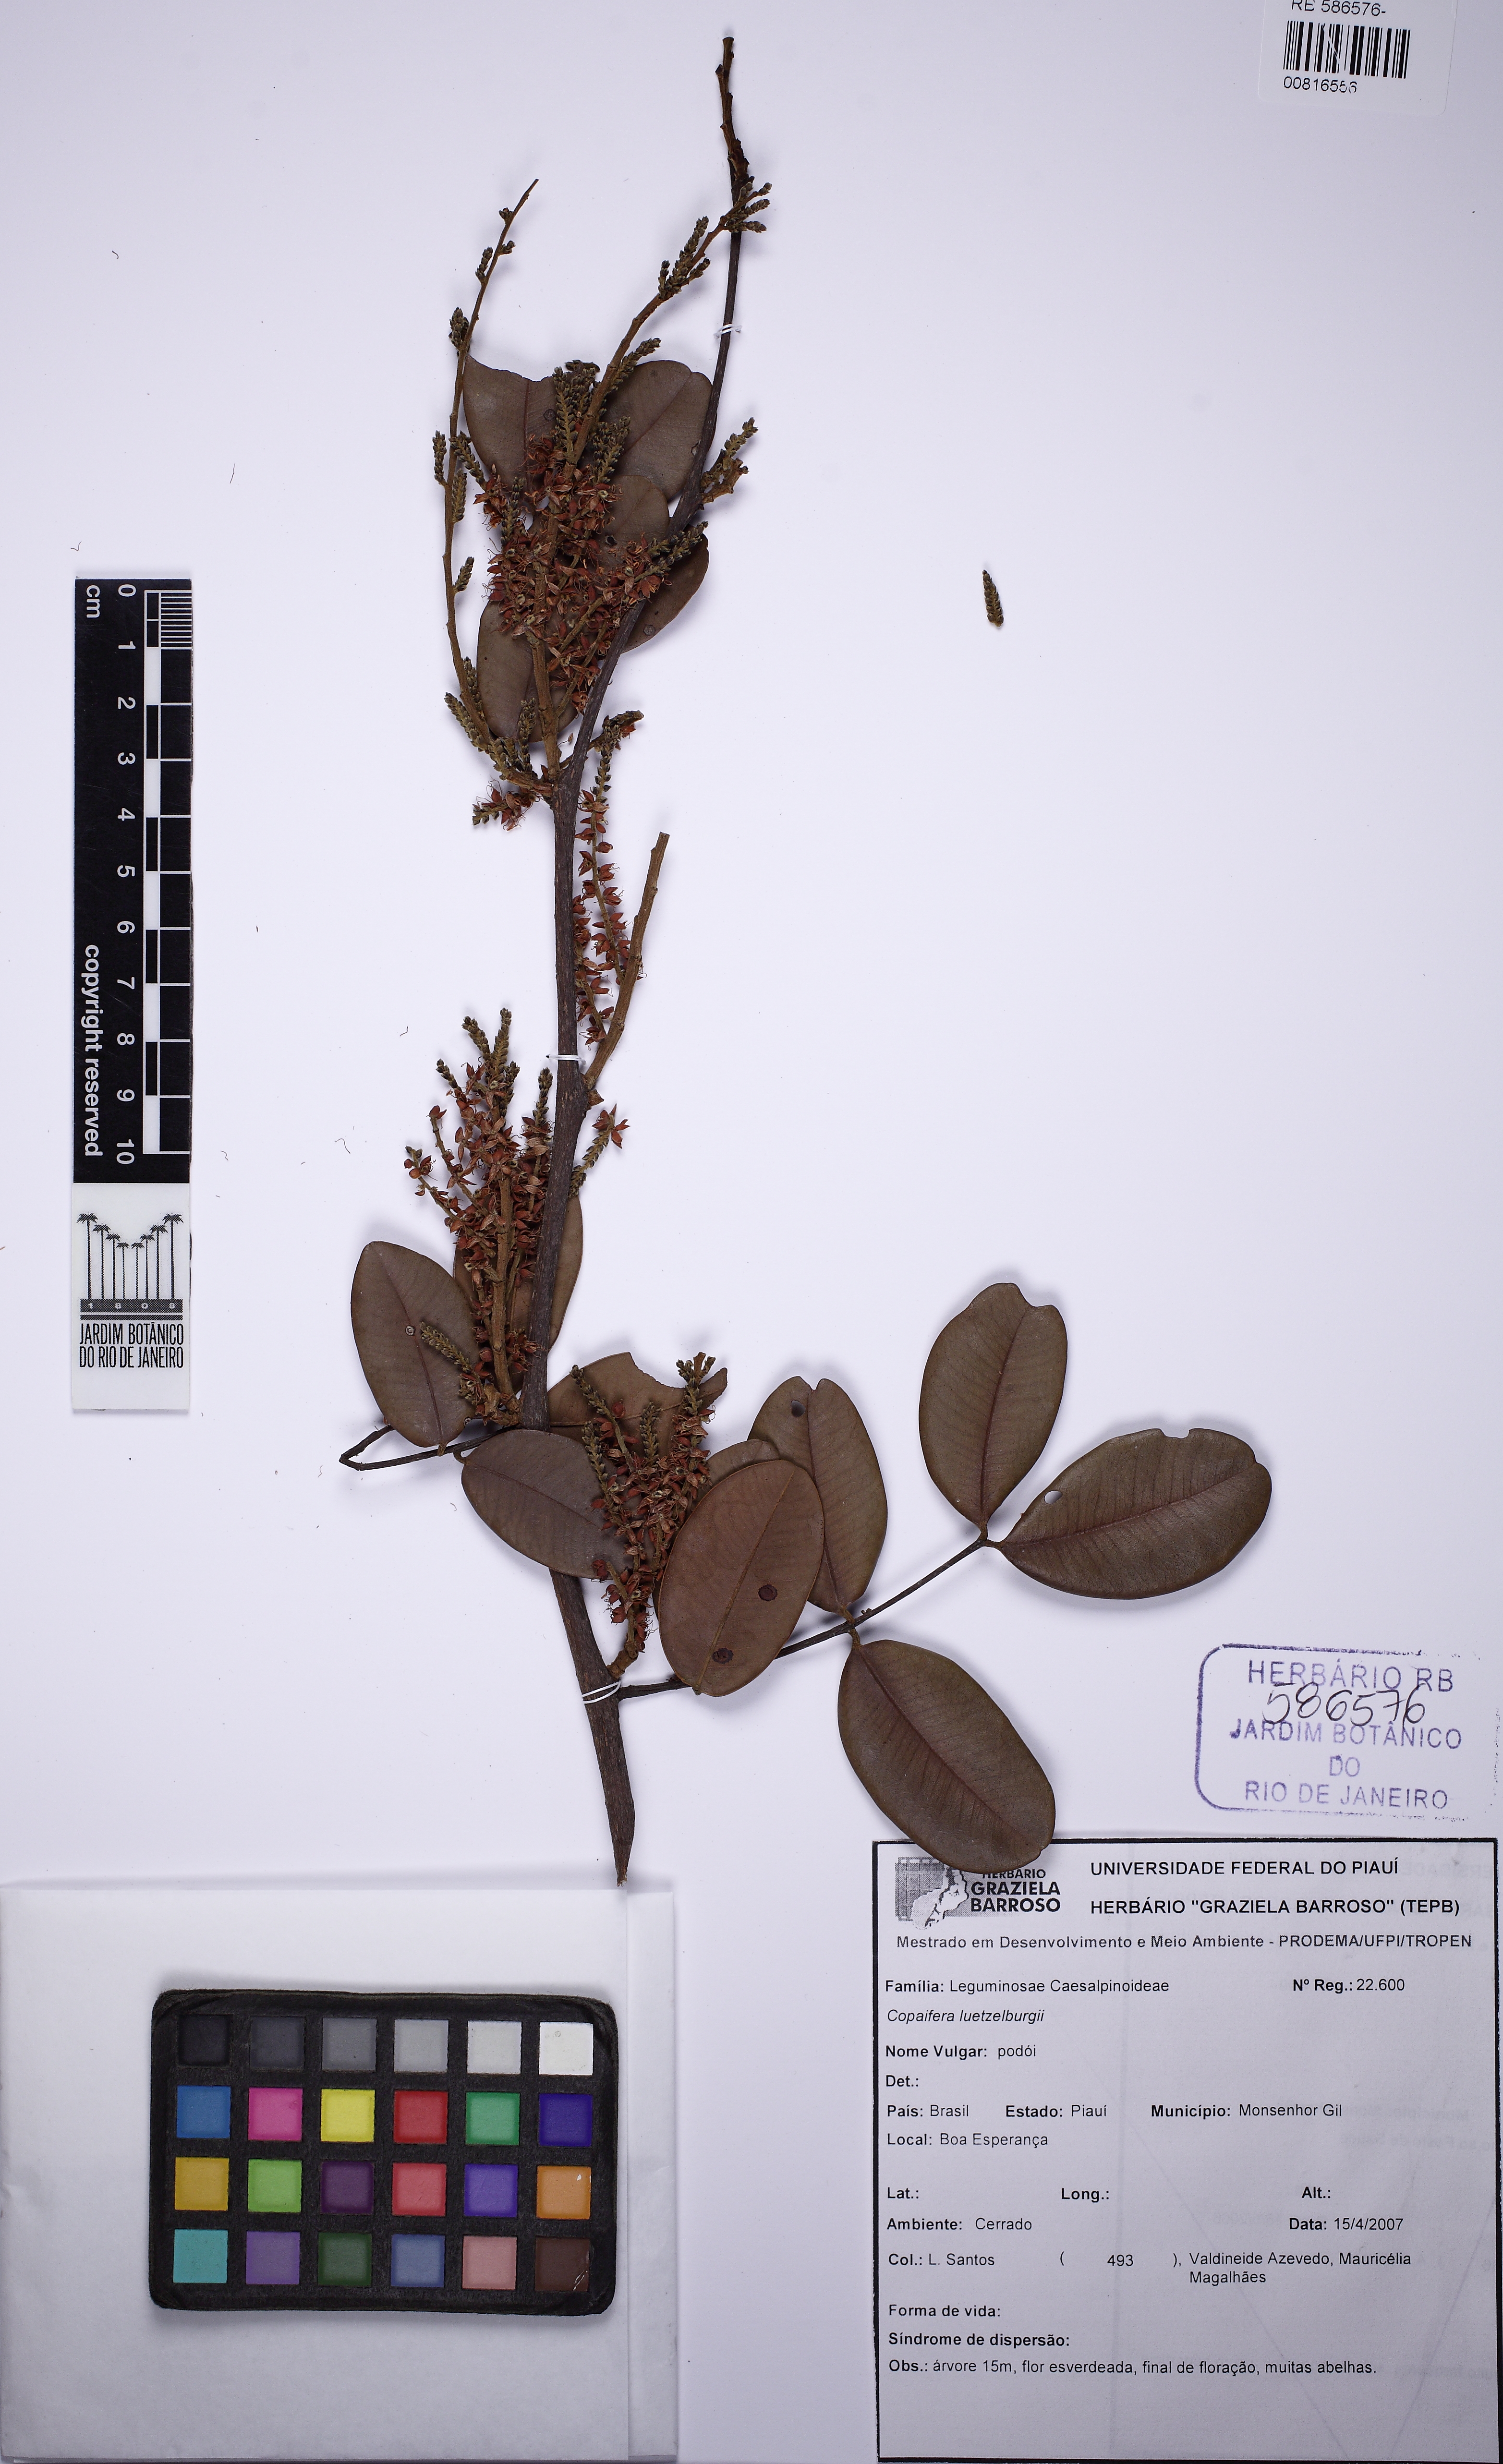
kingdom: Plantae
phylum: Tracheophyta
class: Magnoliopsida
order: Fabales
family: Fabaceae
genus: Copaifera
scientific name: Copaifera luetzelburgii
